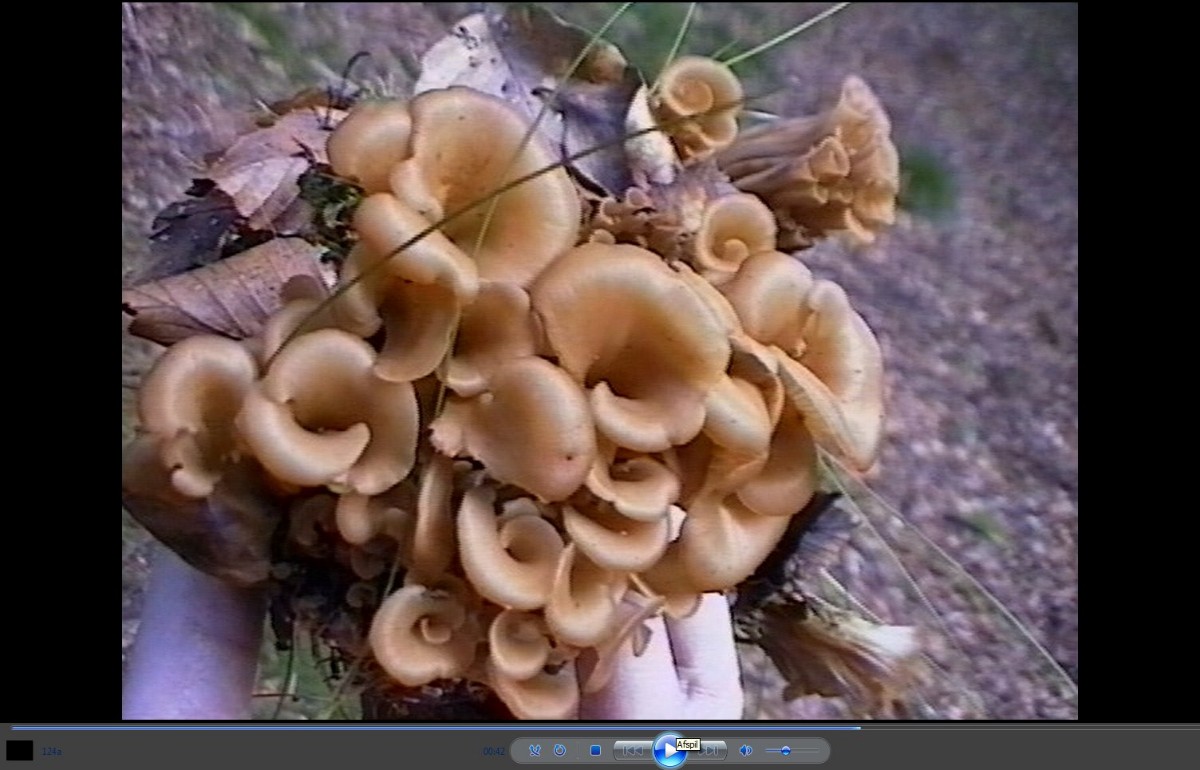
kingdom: Fungi
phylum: Basidiomycota
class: Agaricomycetes
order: Russulales
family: Auriscalpiaceae
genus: Lentinellus
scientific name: Lentinellus cochleatus
